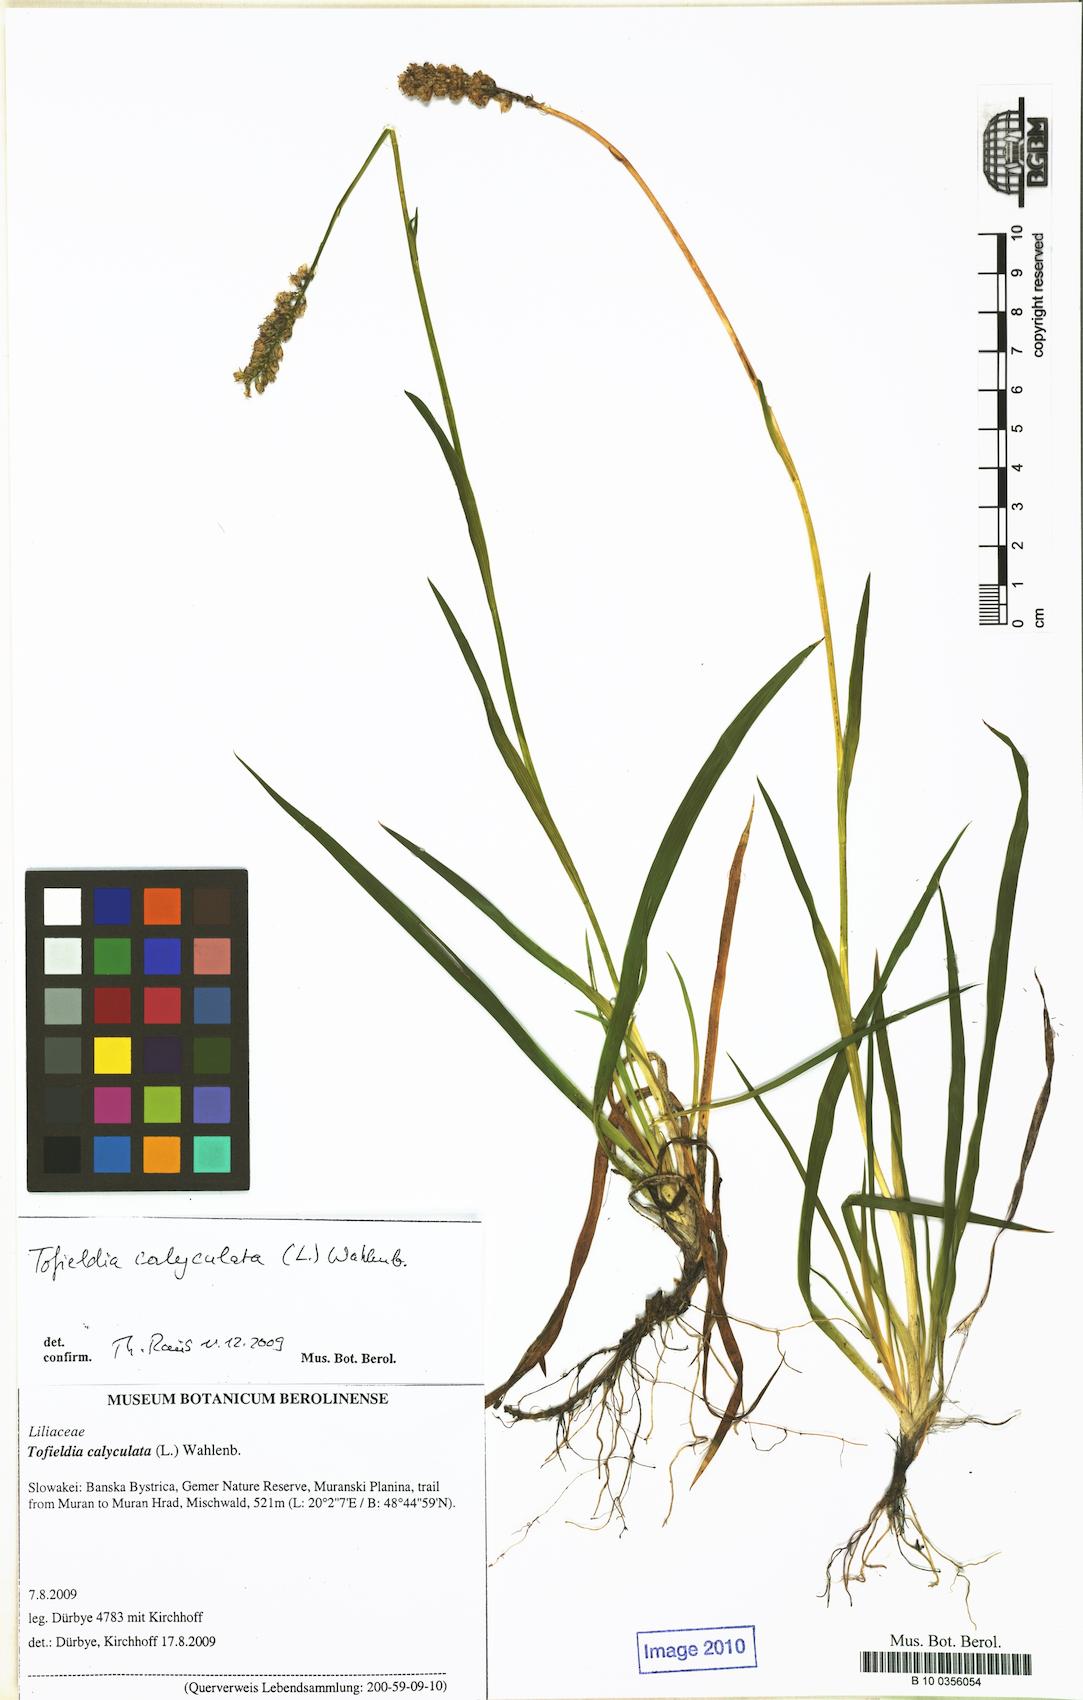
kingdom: Plantae
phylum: Tracheophyta
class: Liliopsida
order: Alismatales
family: Tofieldiaceae
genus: Tofieldia
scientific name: Tofieldia calyculata
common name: German-asphodel
